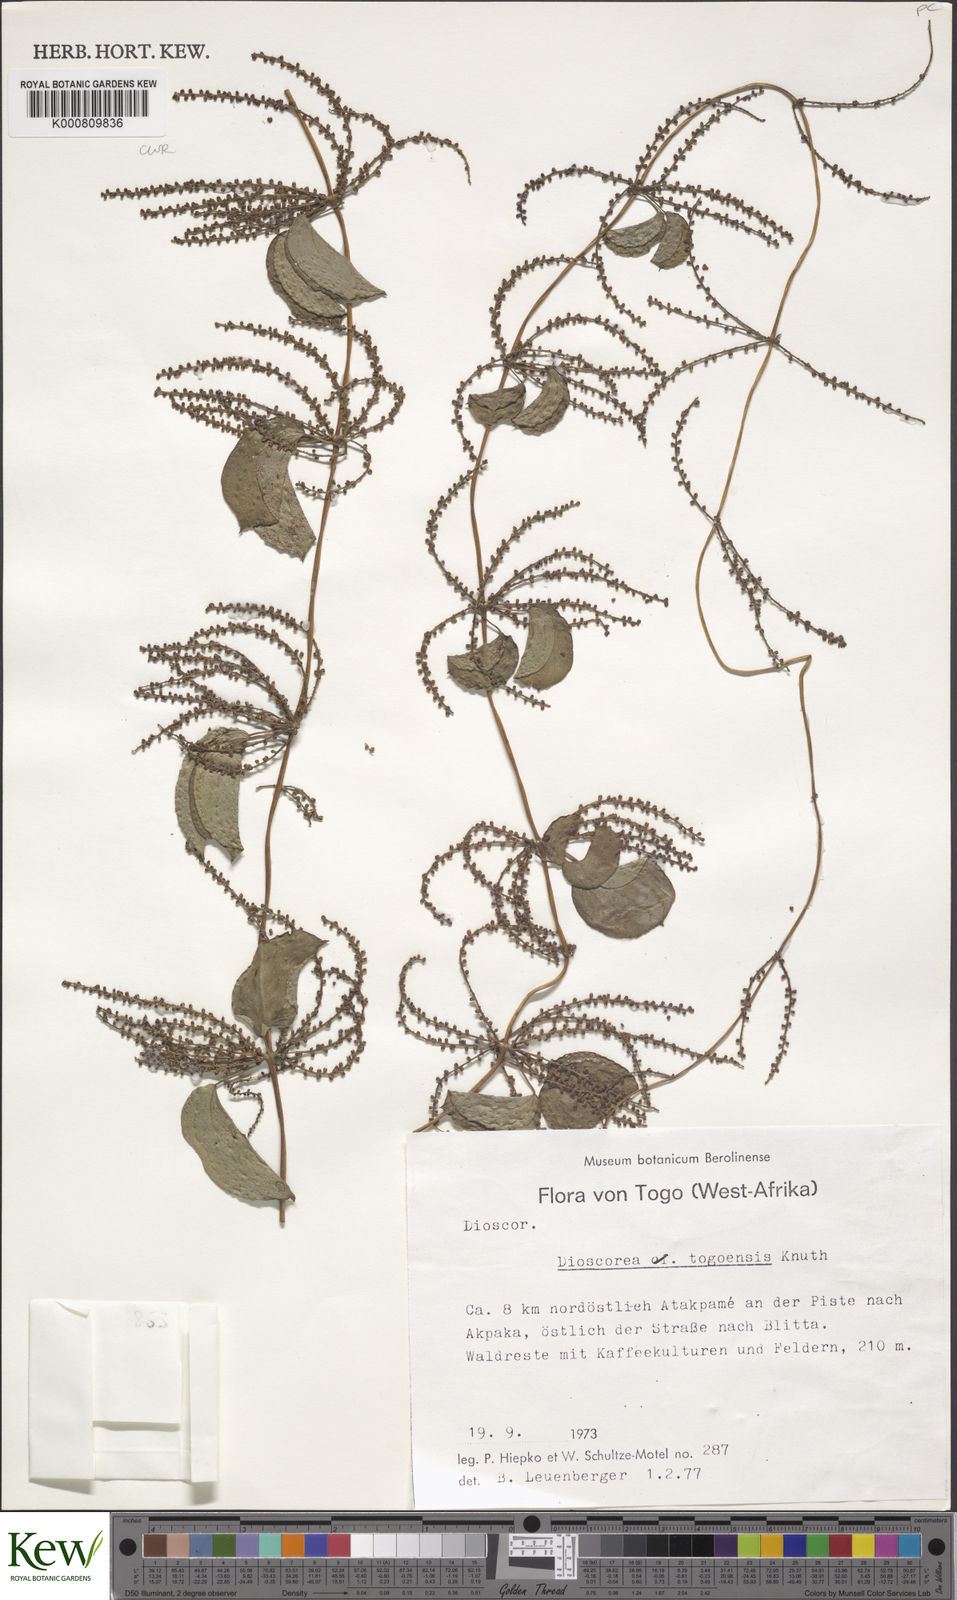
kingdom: Plantae
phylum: Tracheophyta
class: Liliopsida
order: Dioscoreales
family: Dioscoreaceae
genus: Dioscorea
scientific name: Dioscorea togoensis
